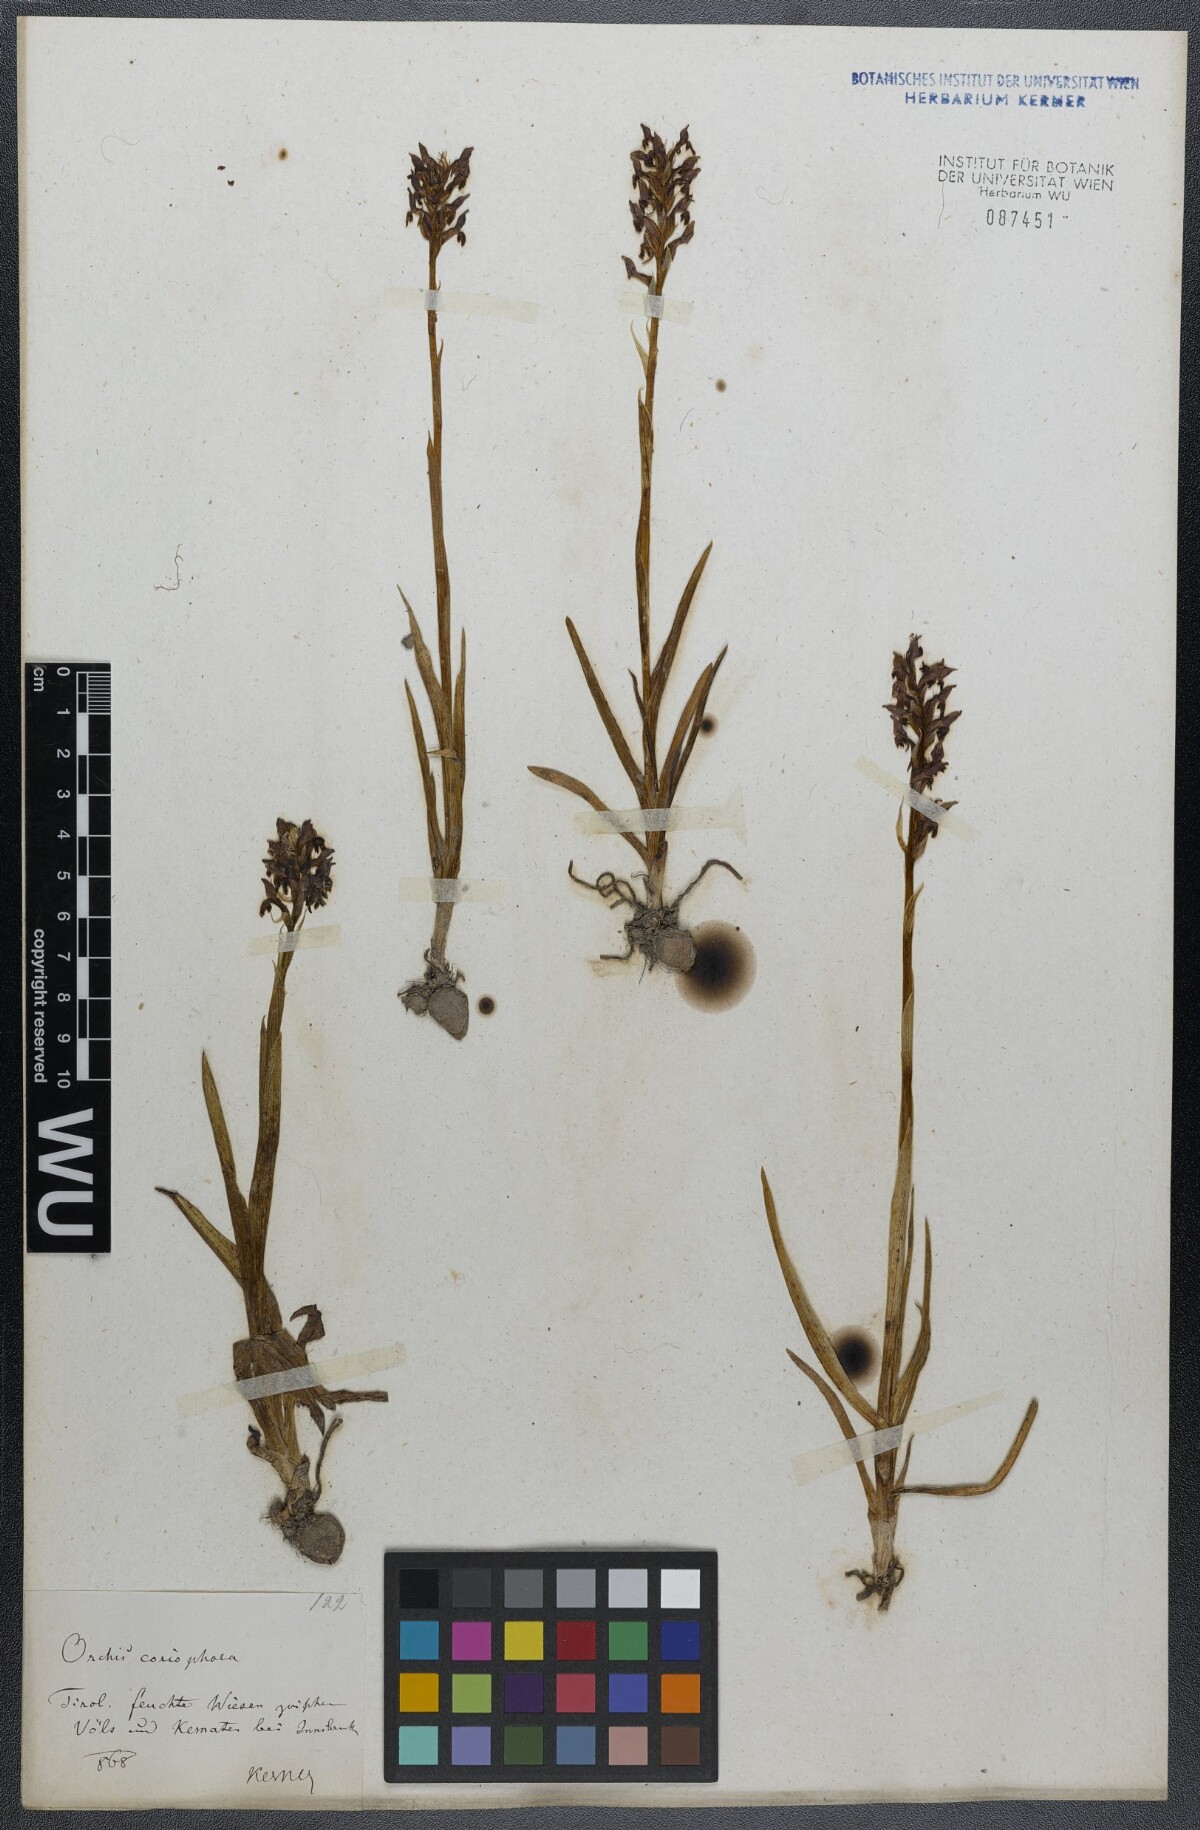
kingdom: Plantae
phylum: Tracheophyta
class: Liliopsida
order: Asparagales
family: Orchidaceae
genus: Anacamptis
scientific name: Anacamptis coriophora
